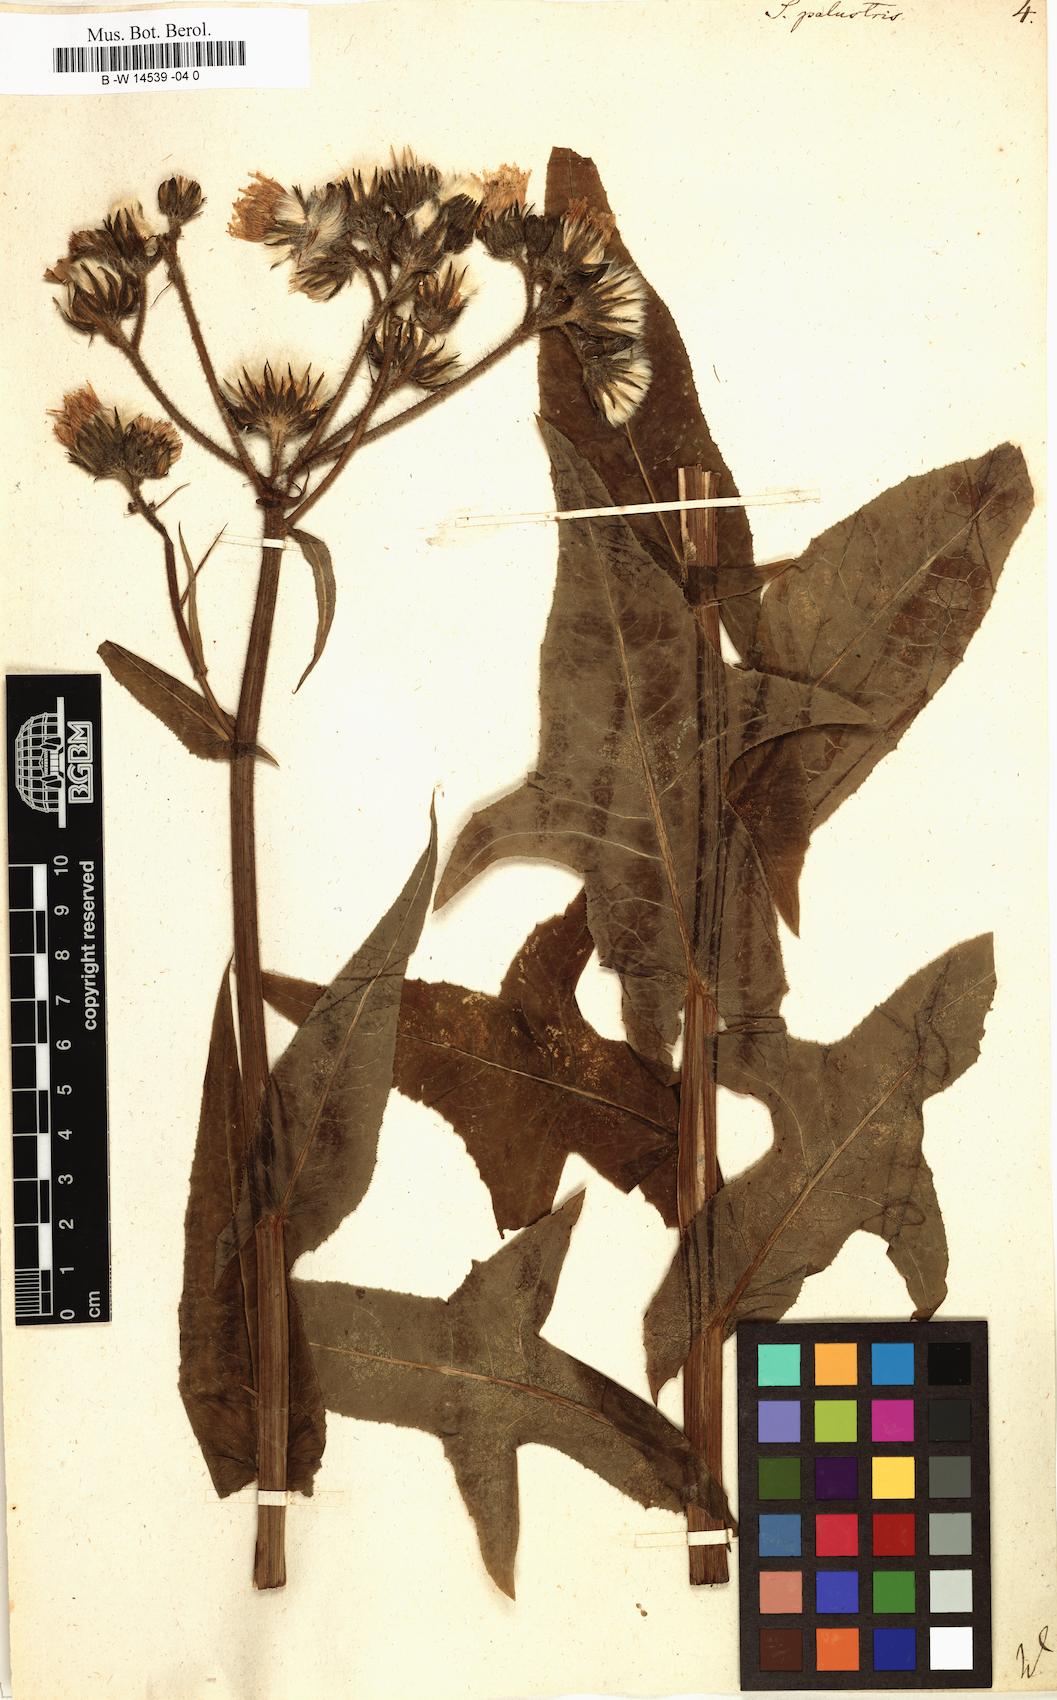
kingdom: Plantae
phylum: Tracheophyta
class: Magnoliopsida
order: Asterales
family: Asteraceae
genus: Sonchus
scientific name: Sonchus palustris
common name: Marsh sow-thistle
